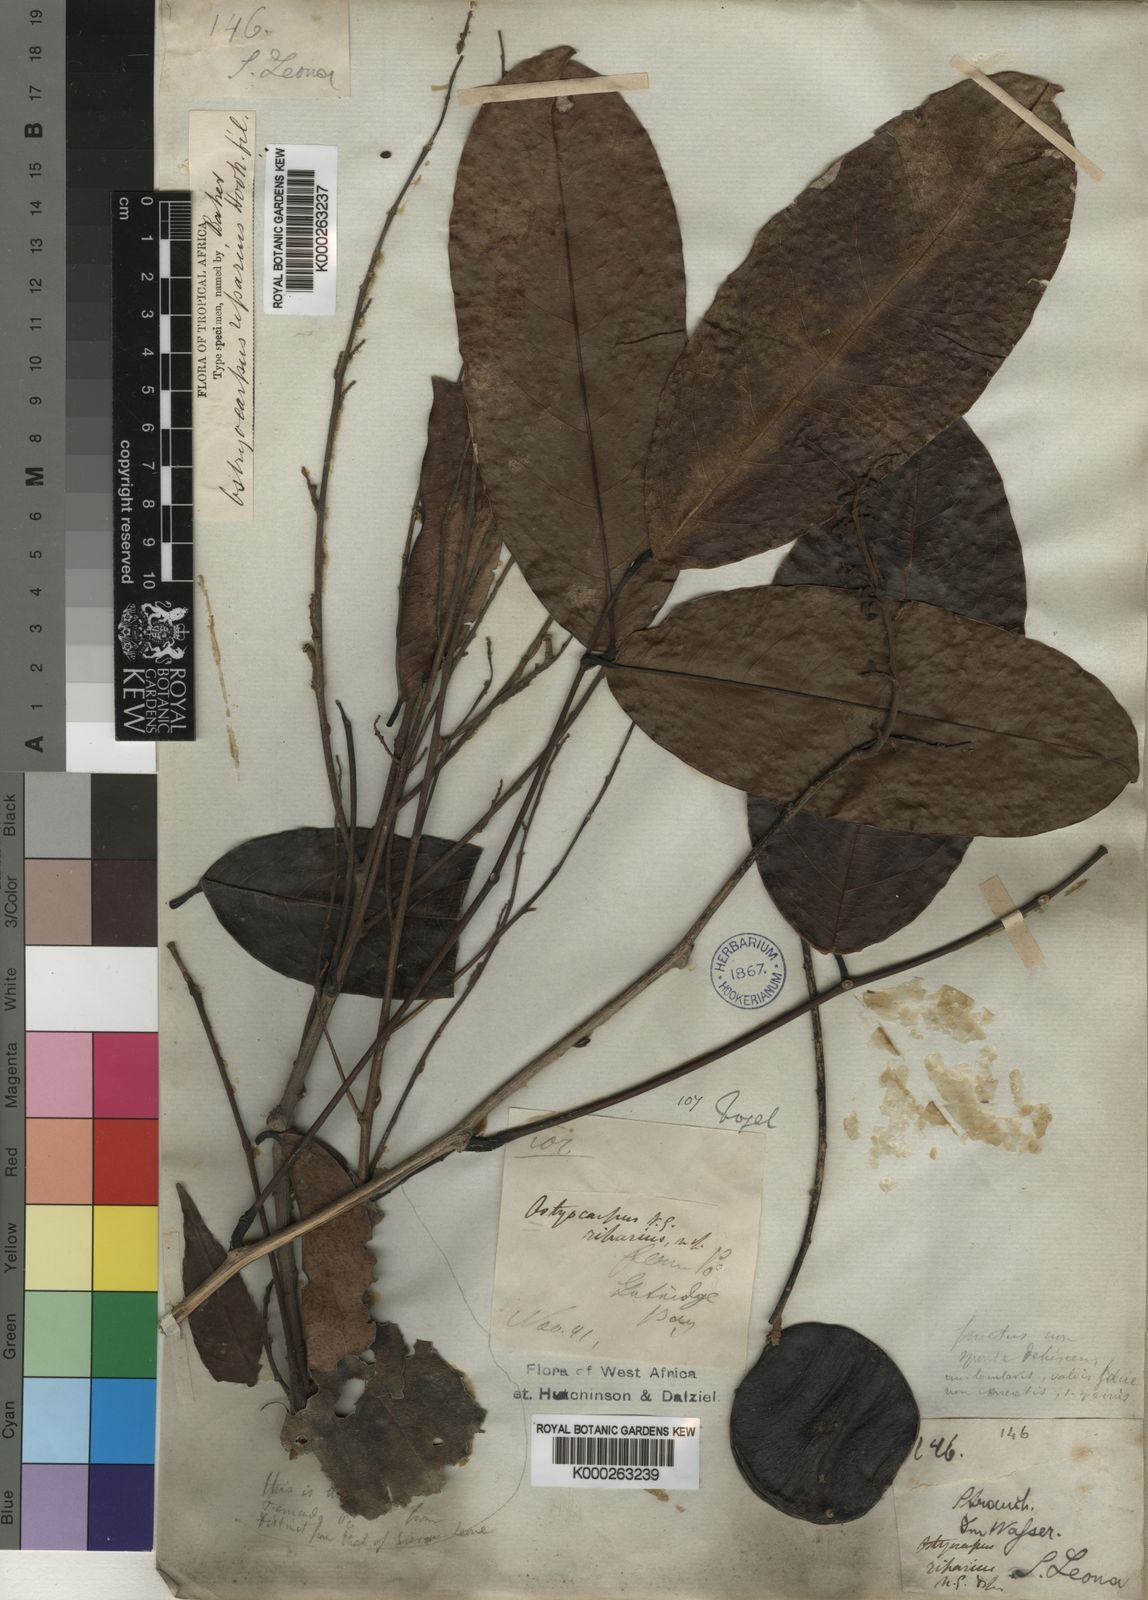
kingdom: Plantae
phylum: Tracheophyta
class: Magnoliopsida
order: Fabales
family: Fabaceae
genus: Ostryocarpus
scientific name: Ostryocarpus riparius
